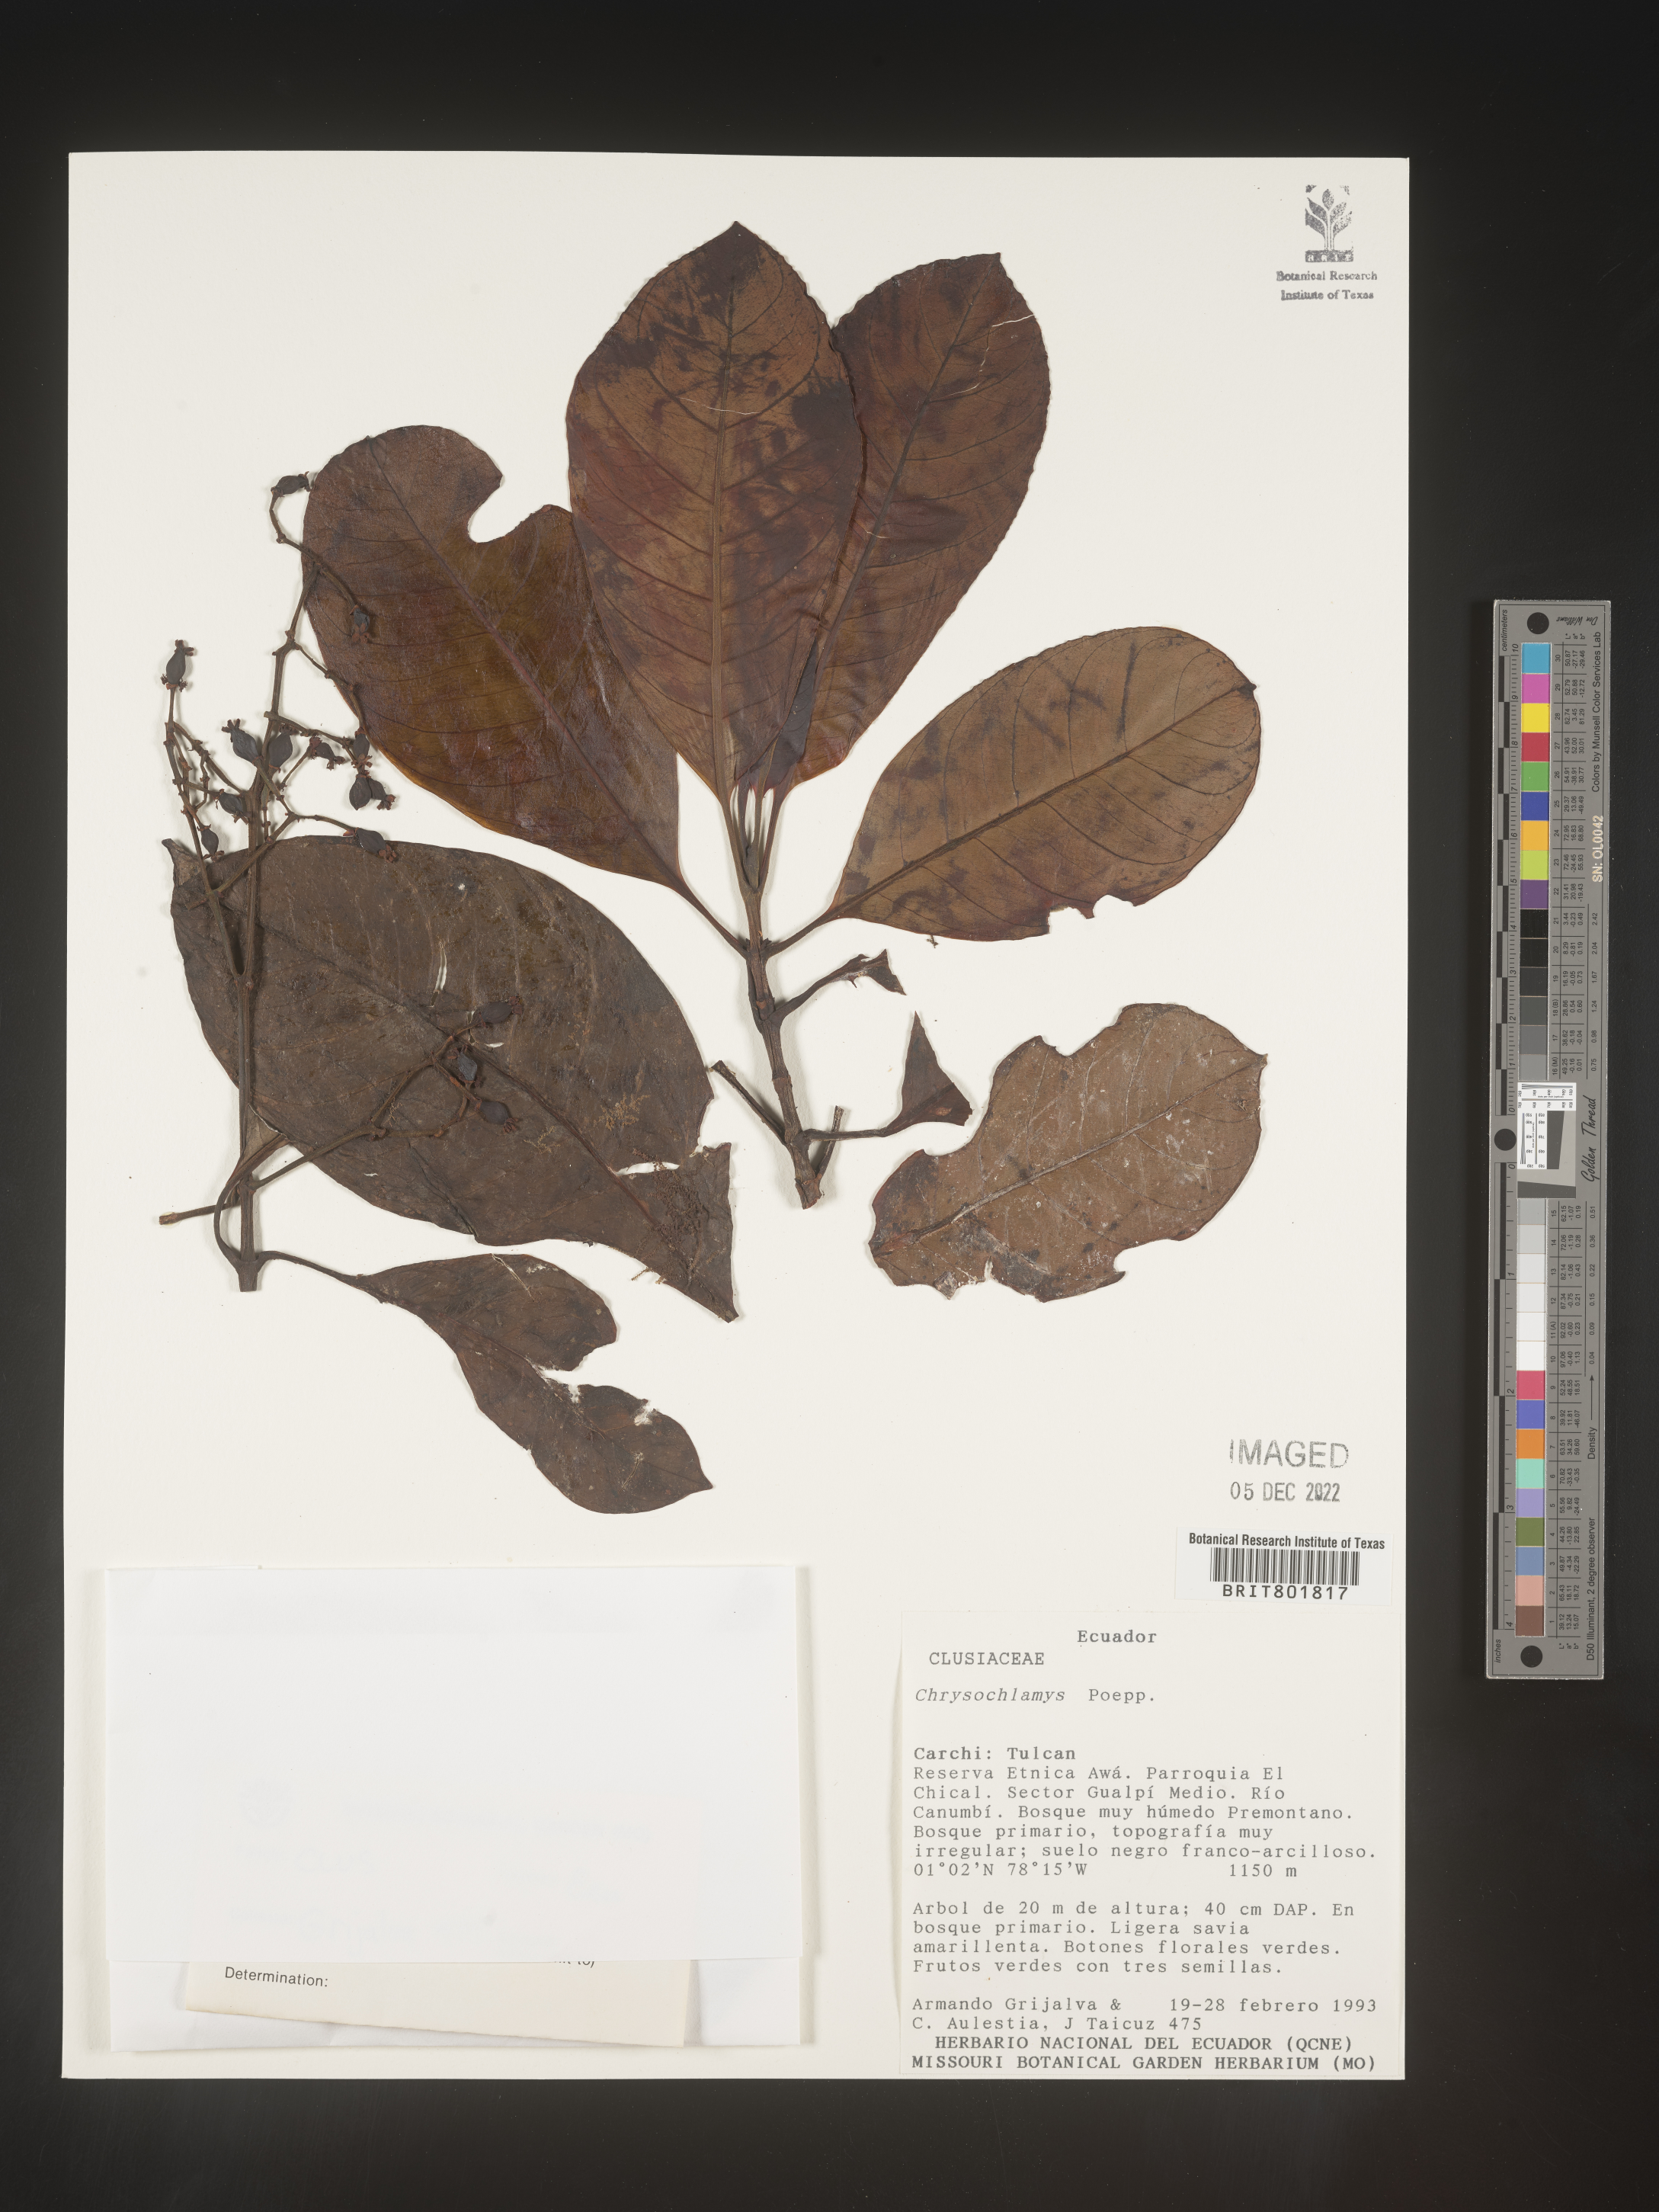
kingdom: Plantae
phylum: Tracheophyta
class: Magnoliopsida
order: Malpighiales
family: Clusiaceae
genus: Chrysochlamys
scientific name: Chrysochlamys
